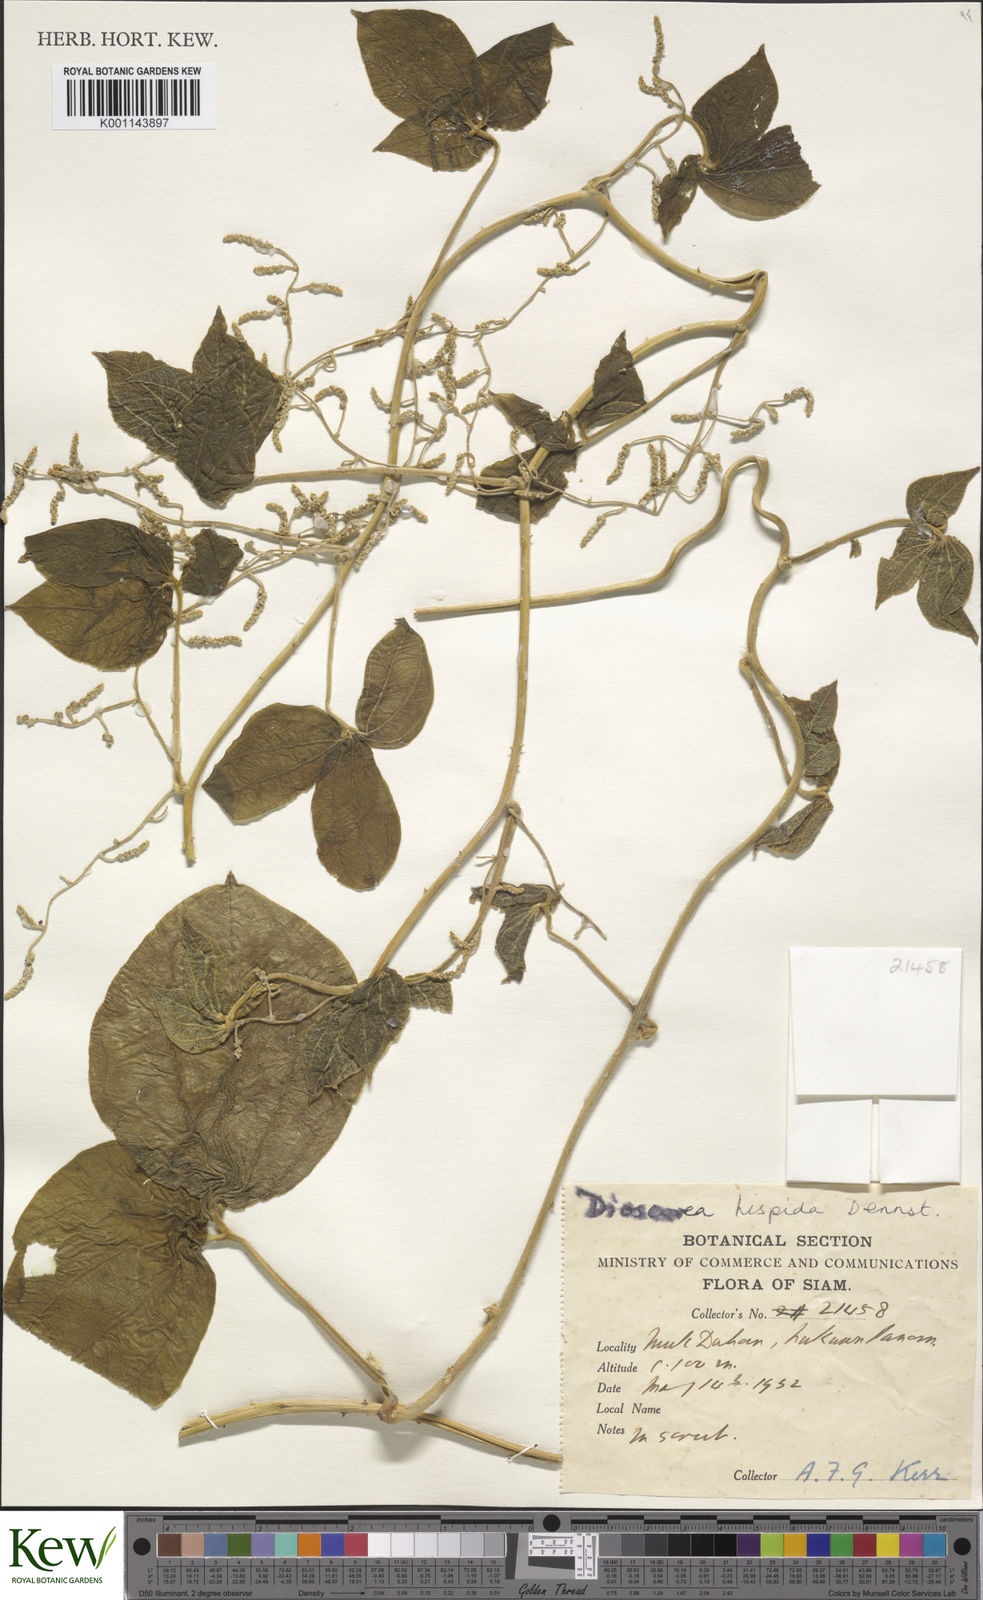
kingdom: Plantae
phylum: Tracheophyta
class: Liliopsida
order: Dioscoreales
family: Dioscoreaceae
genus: Dioscorea
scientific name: Dioscorea hispida
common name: Asiatic bitter yam
